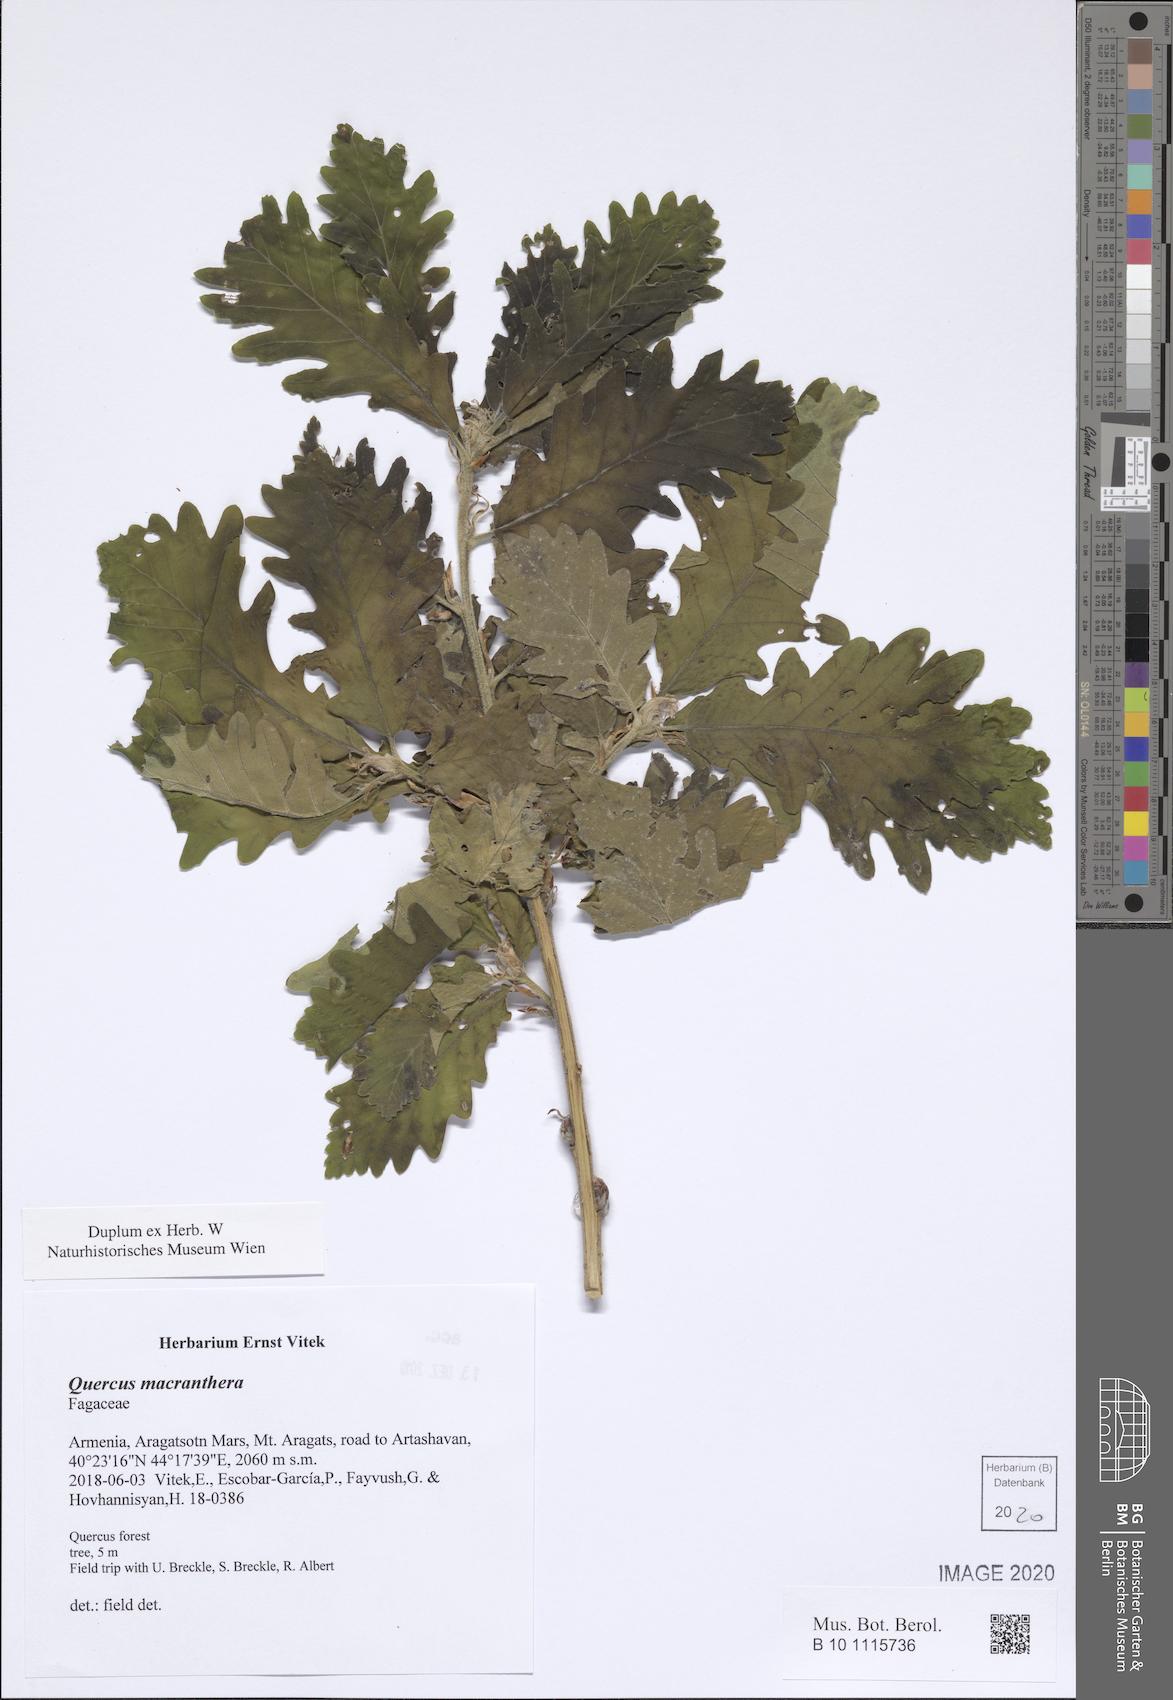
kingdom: Plantae
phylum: Tracheophyta
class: Magnoliopsida
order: Fagales
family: Fagaceae
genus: Quercus
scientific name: Quercus macranthera
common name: Caucasian oak
